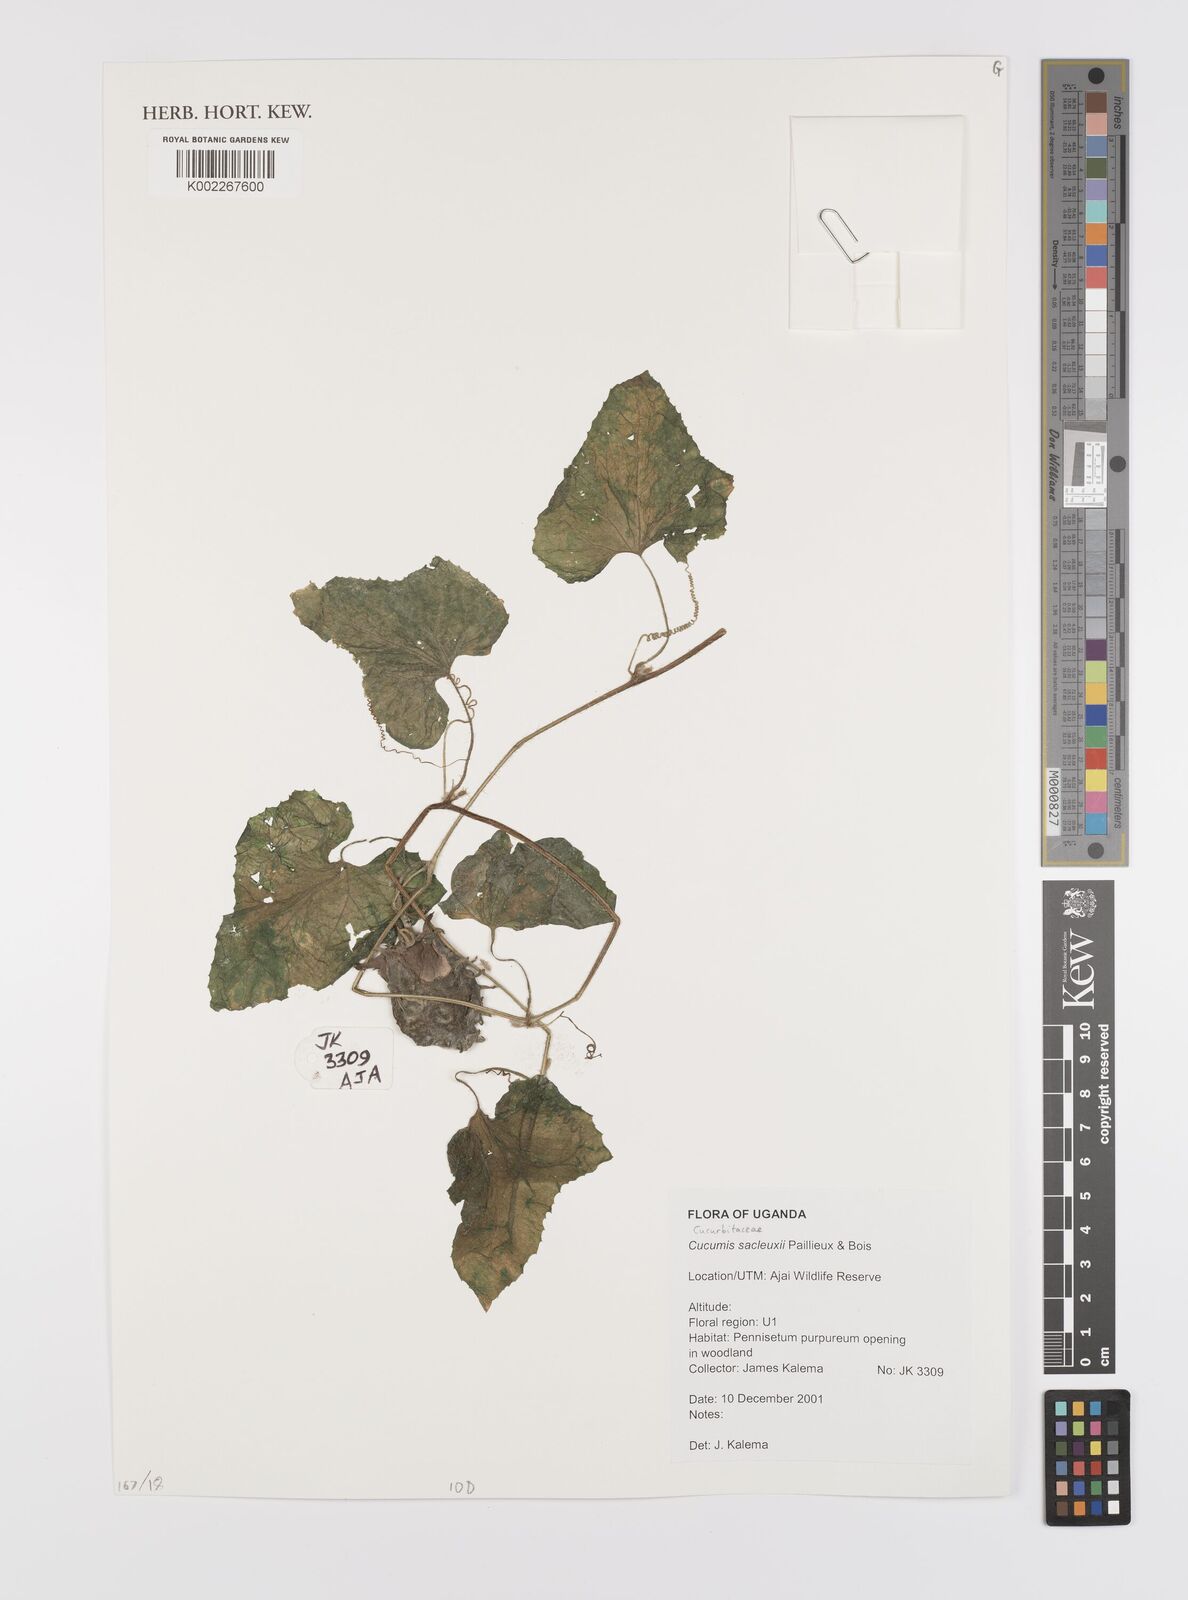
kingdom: Plantae
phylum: Tracheophyta
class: Magnoliopsida
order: Cucurbitales
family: Cucurbitaceae
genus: Cucumis
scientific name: Cucumis sacleuxii
